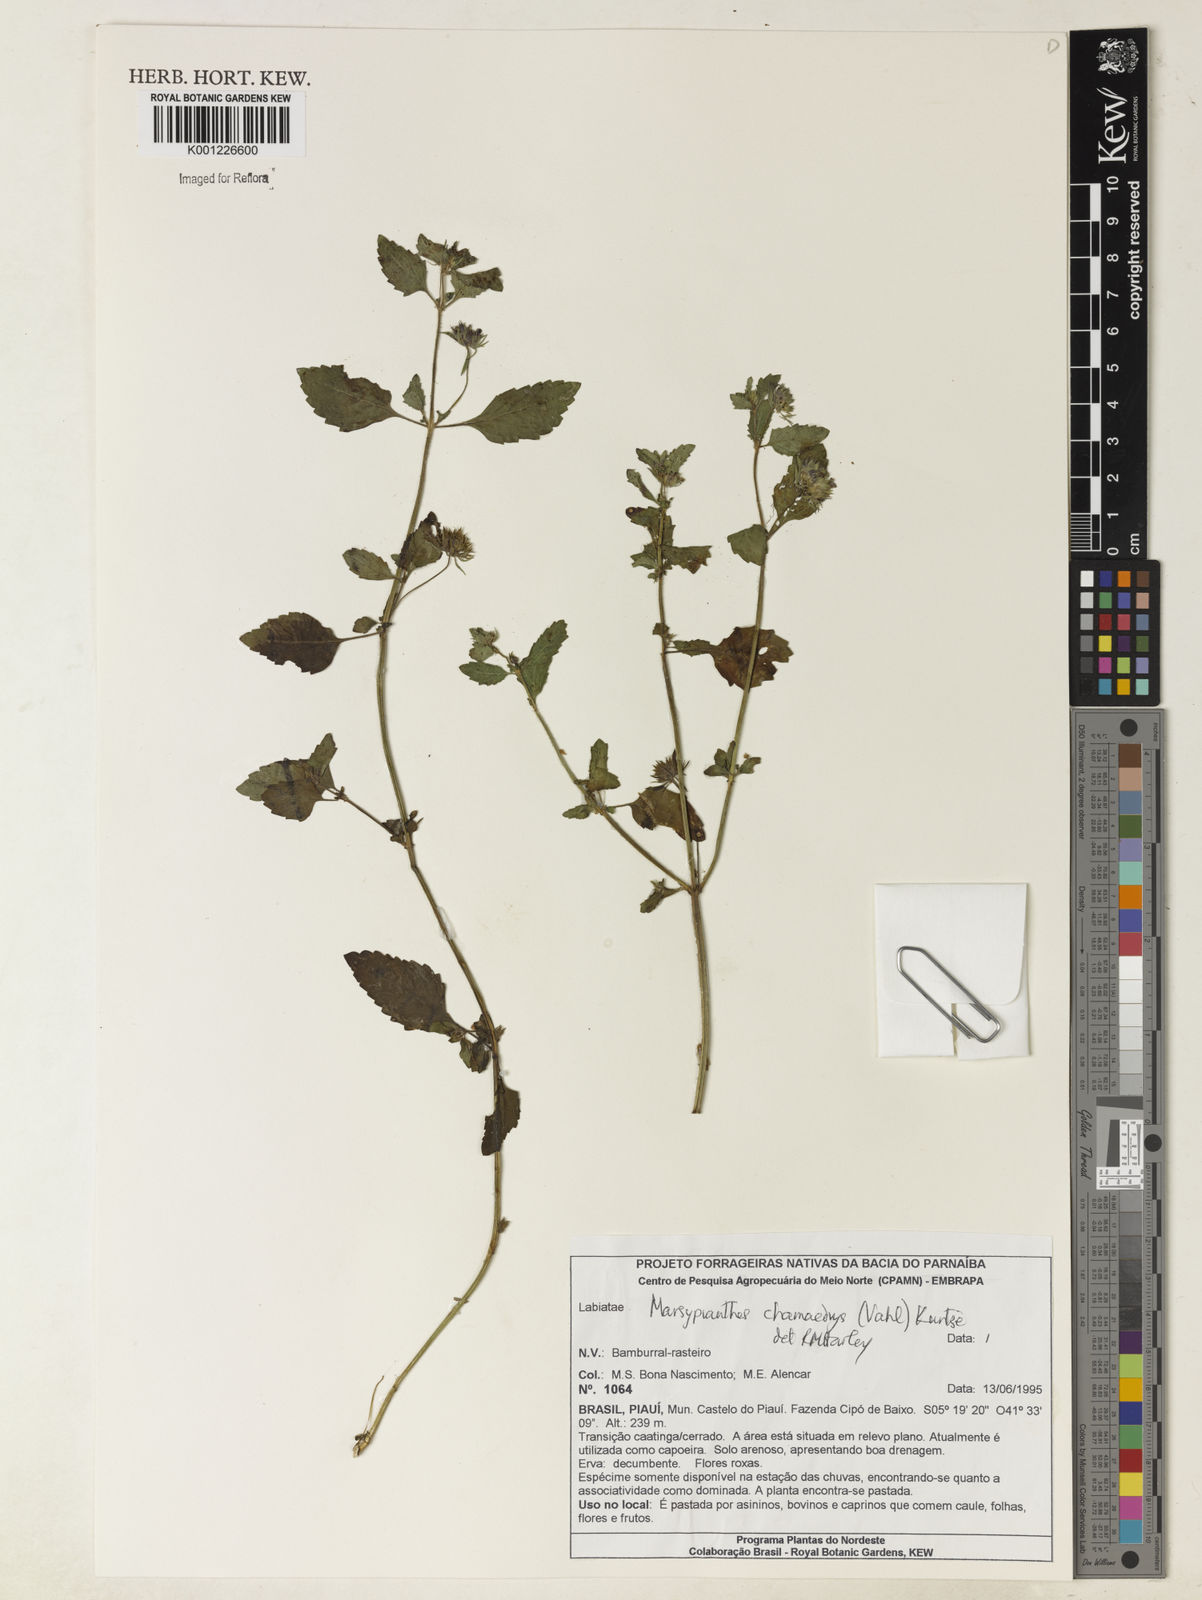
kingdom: Plantae
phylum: Tracheophyta
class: Magnoliopsida
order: Lamiales
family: Lamiaceae
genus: Marsypianthes
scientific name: Marsypianthes chamaedrys
